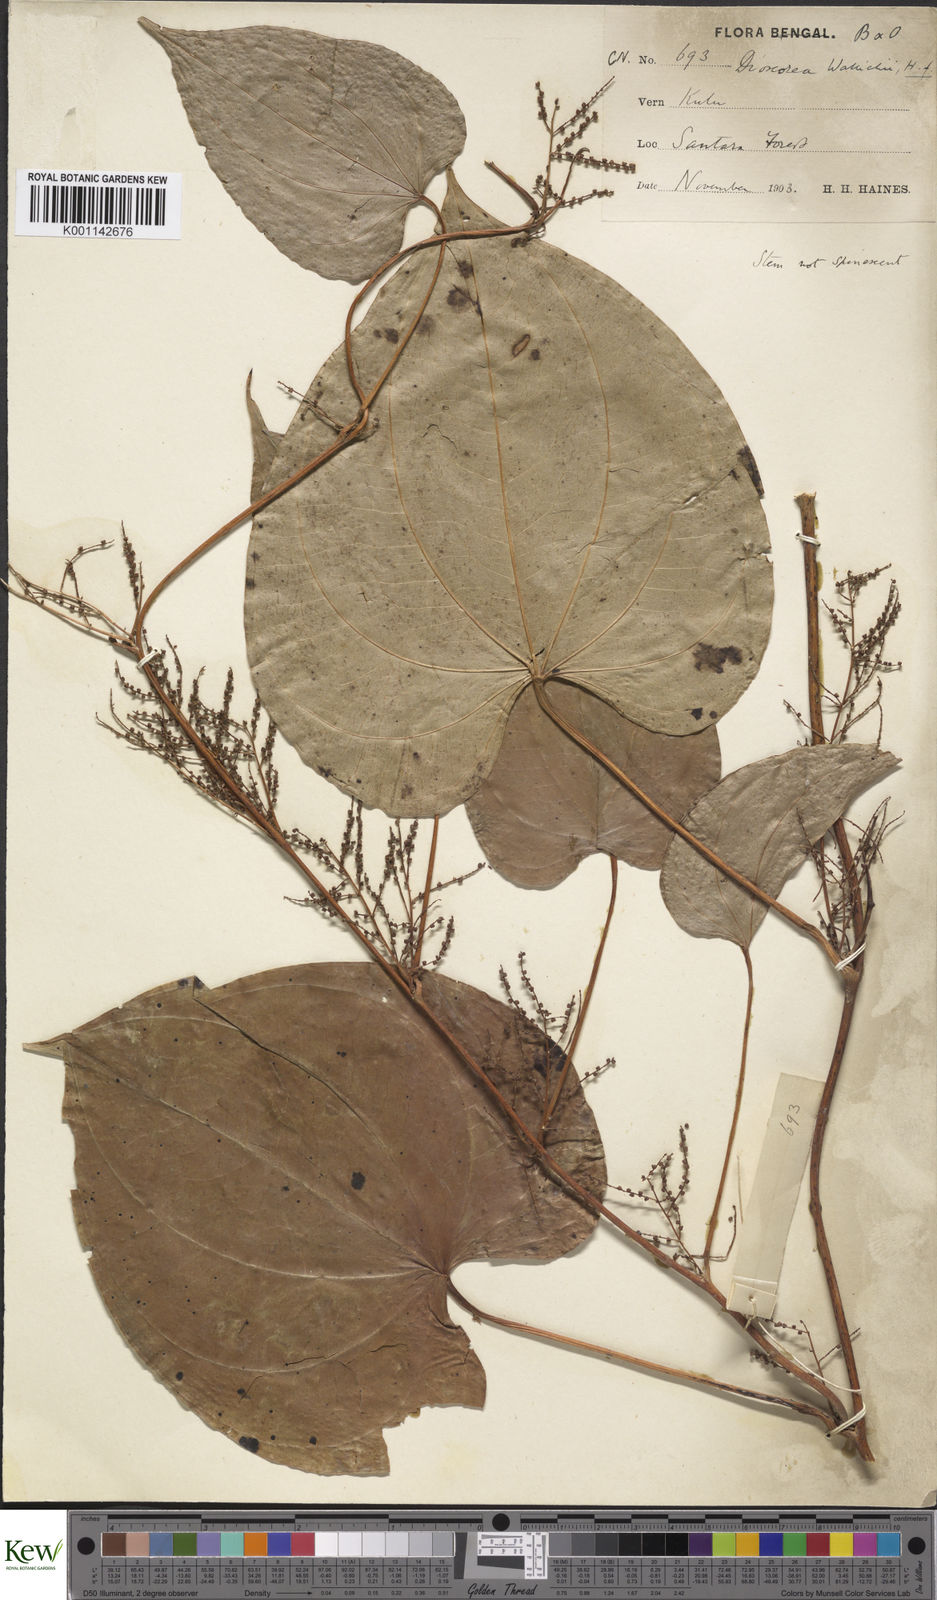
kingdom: Plantae
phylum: Tracheophyta
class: Liliopsida
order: Dioscoreales
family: Dioscoreaceae
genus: Dioscorea
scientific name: Dioscorea wallichii
